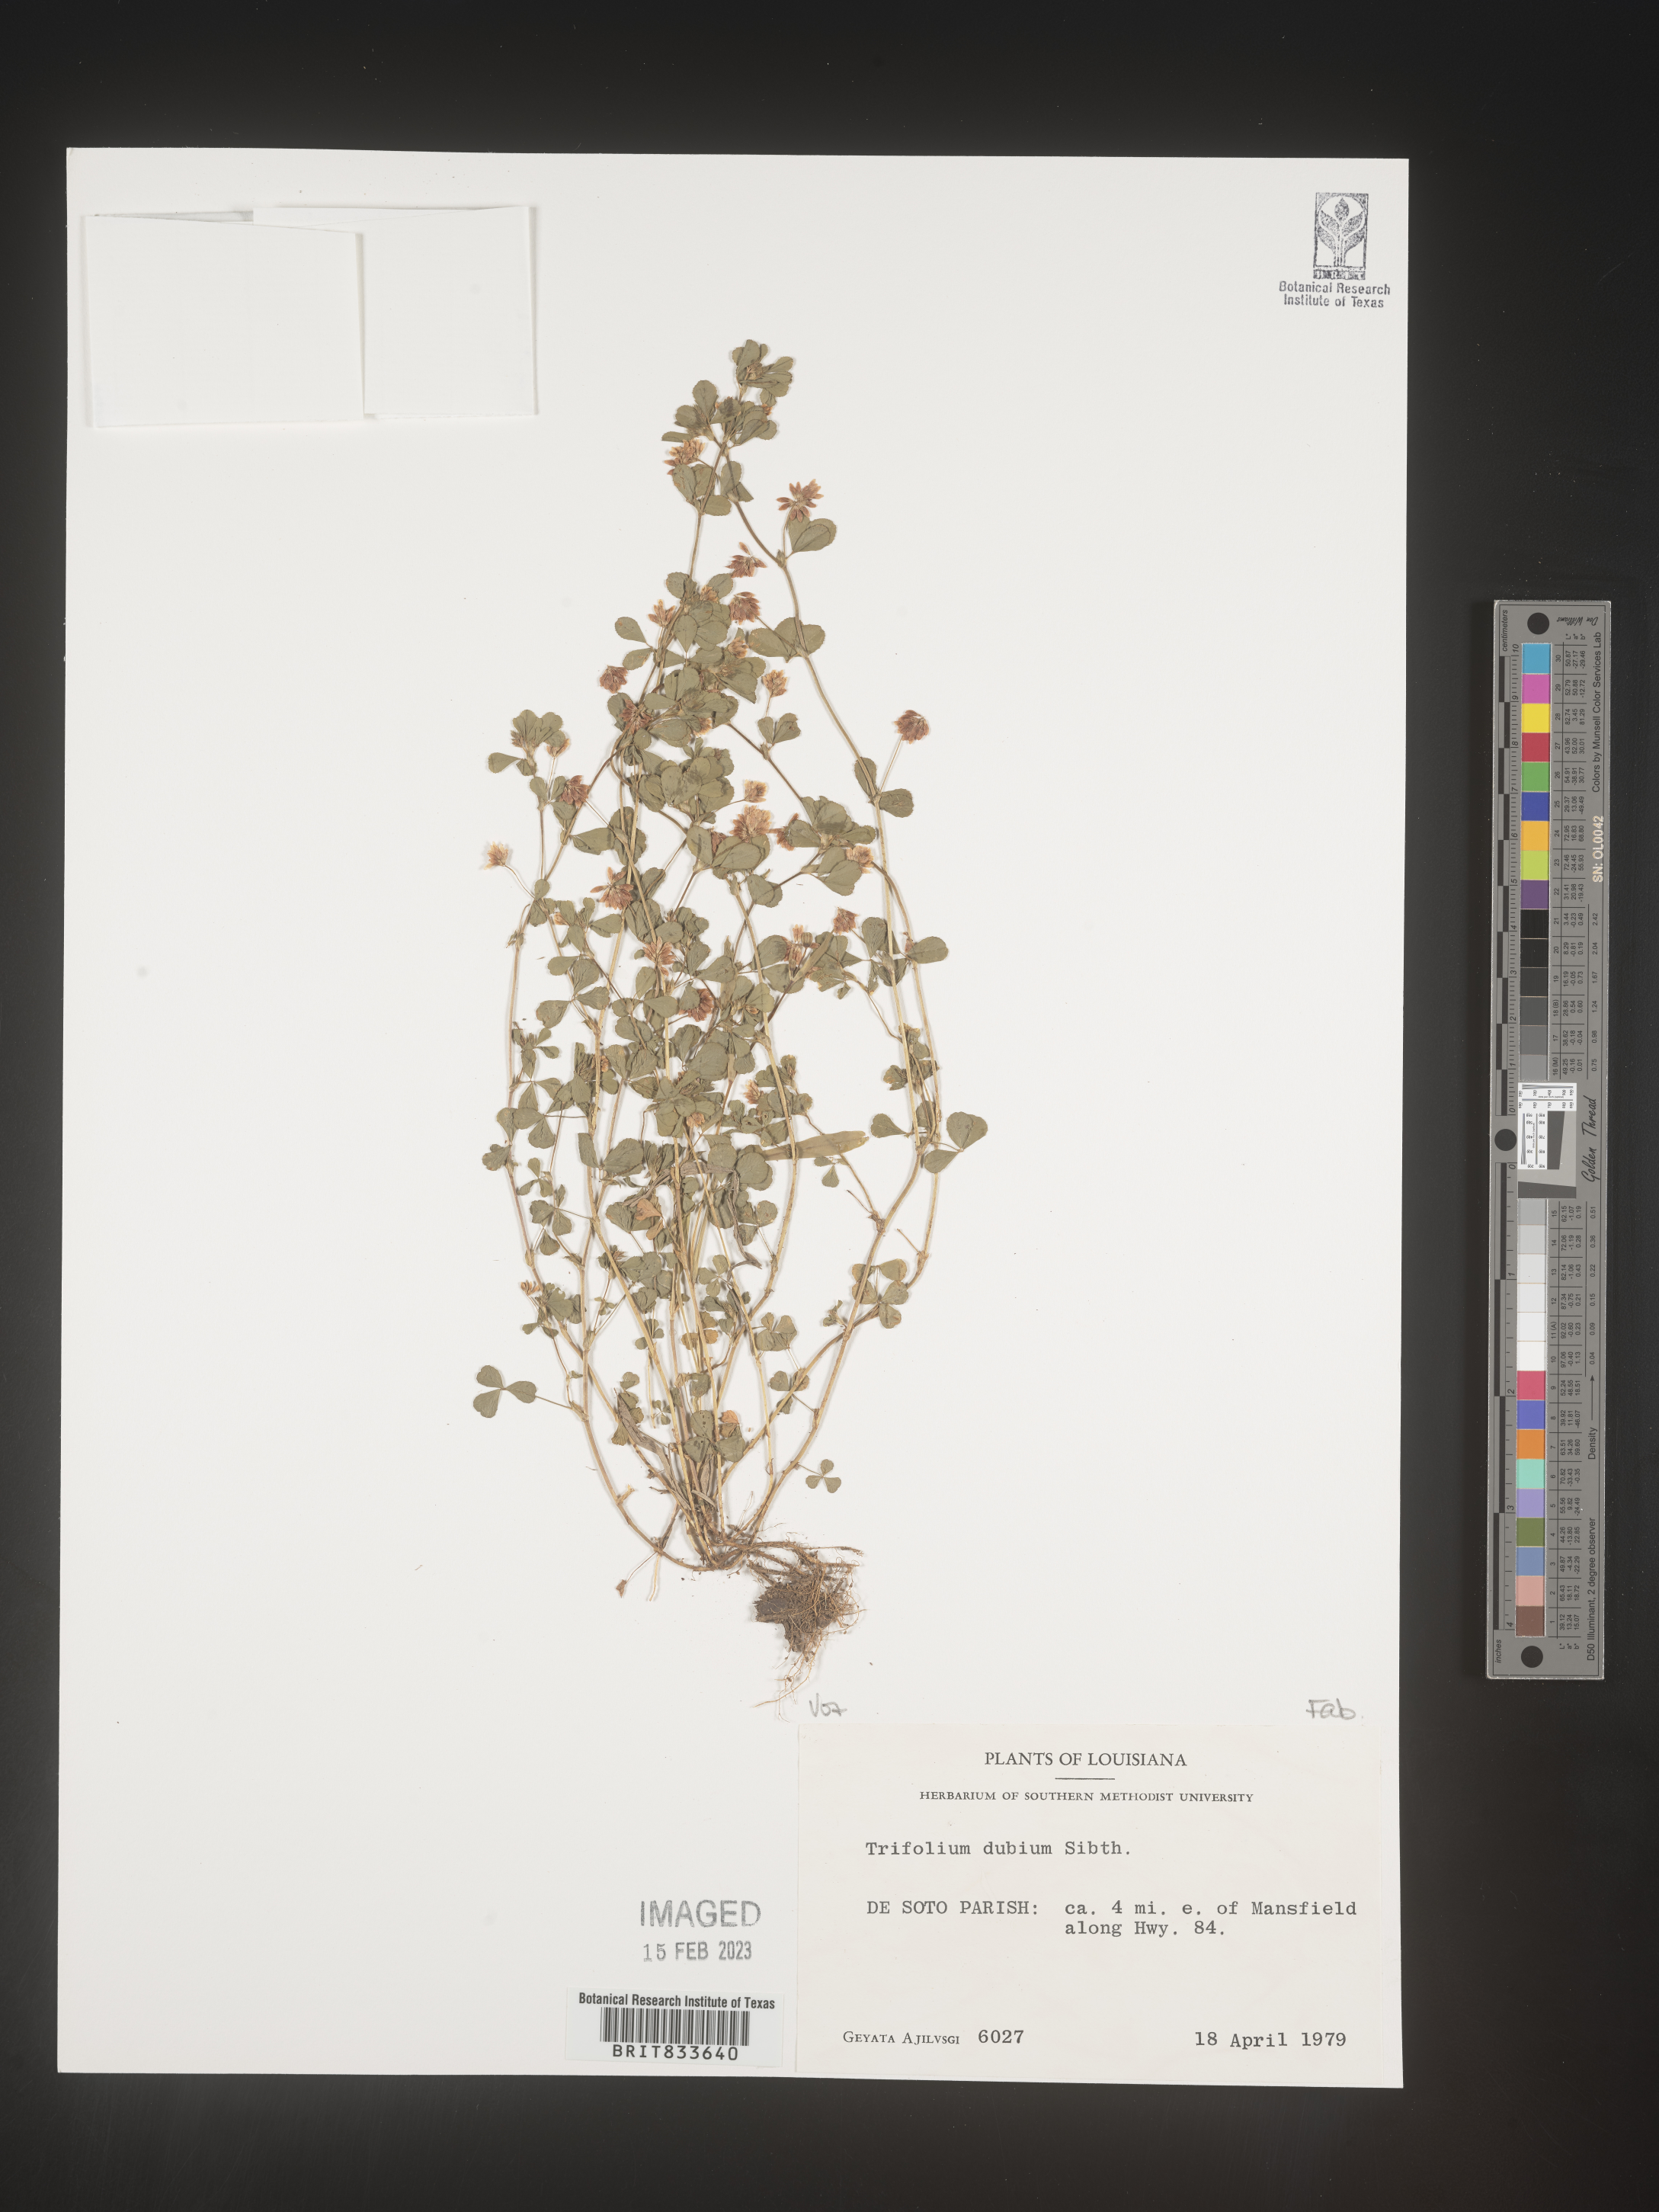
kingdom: Plantae
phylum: Tracheophyta
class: Magnoliopsida
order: Fabales
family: Fabaceae
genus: Trifolium
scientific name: Trifolium dubium
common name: Suckling clover
